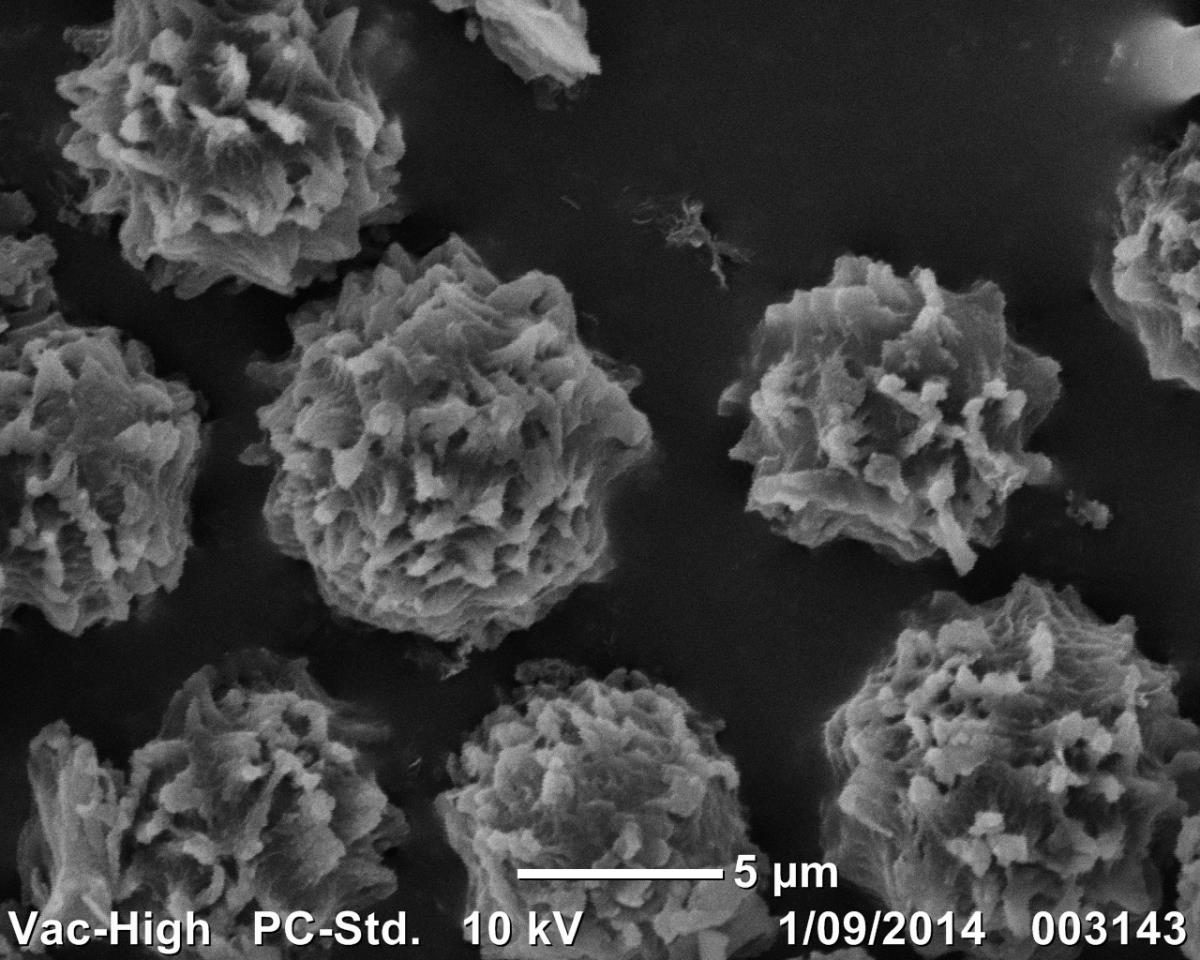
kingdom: Fungi
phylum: Basidiomycota
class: Agaricomycetes
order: Boletales
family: Sclerodermataceae
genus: Pisolithus
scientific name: Pisolithus albus
